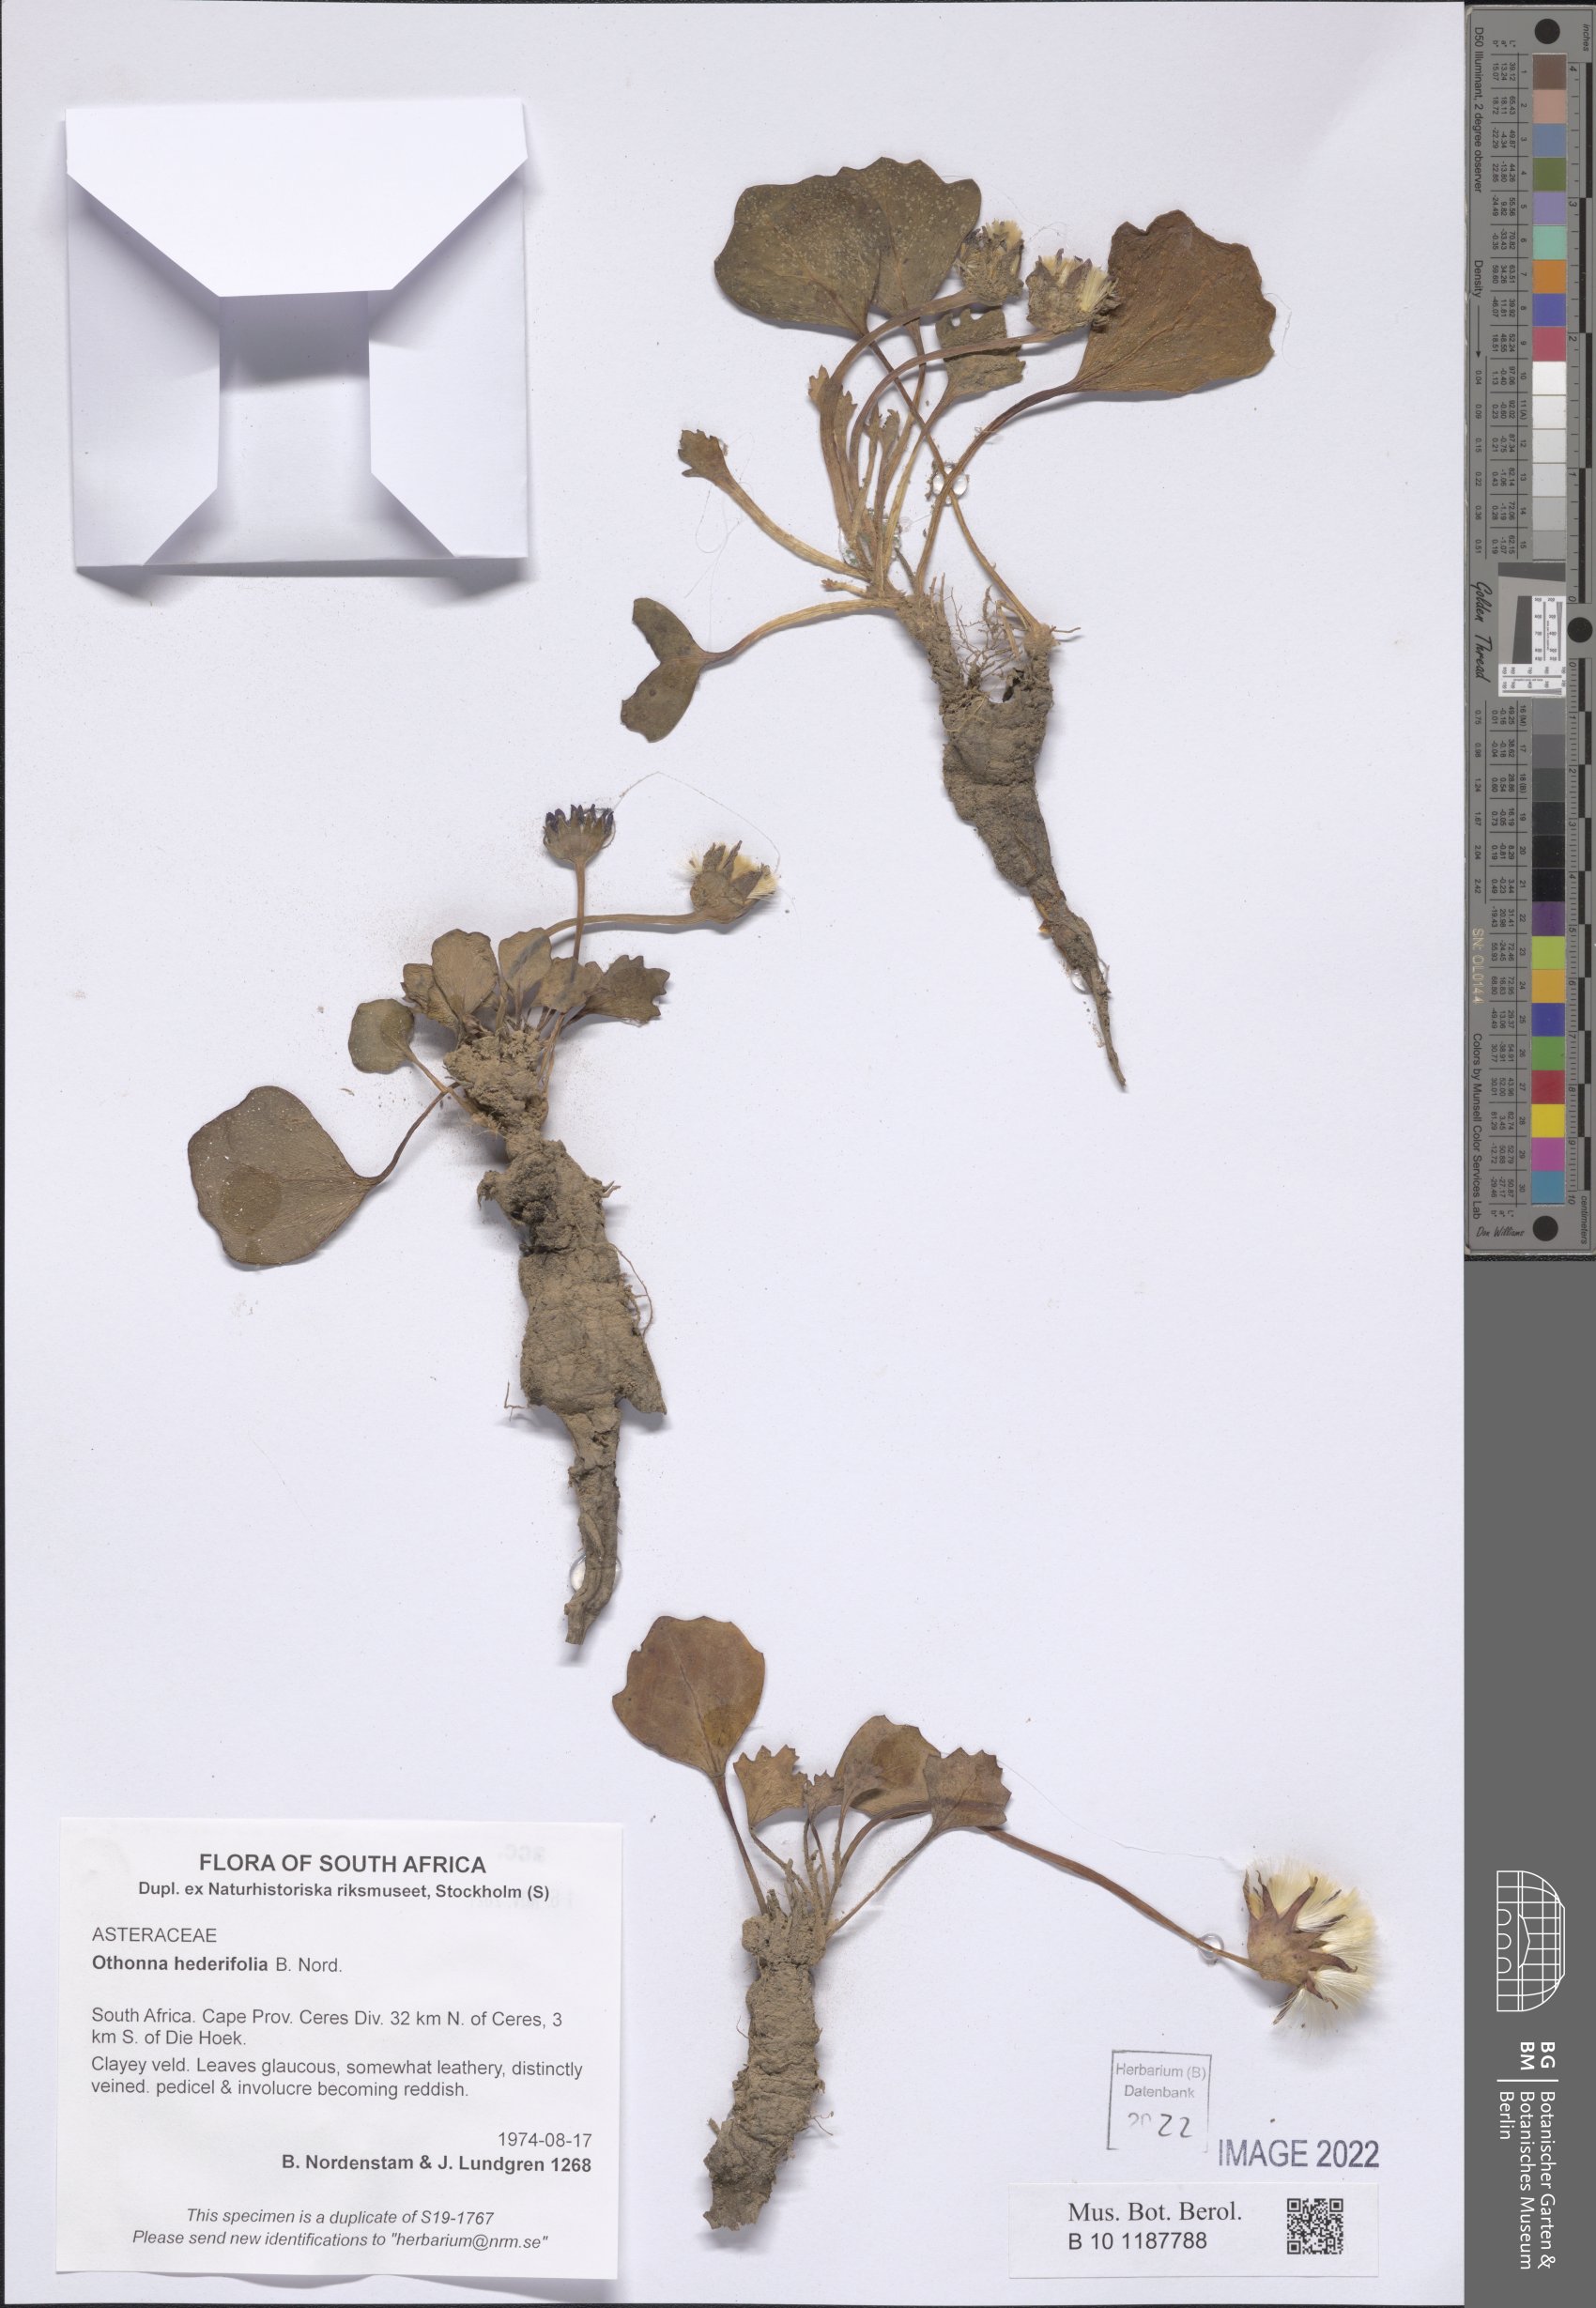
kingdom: Plantae
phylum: Tracheophyta
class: Magnoliopsida
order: Asterales
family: Asteraceae
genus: Othonna
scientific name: Othonna hederifolia
